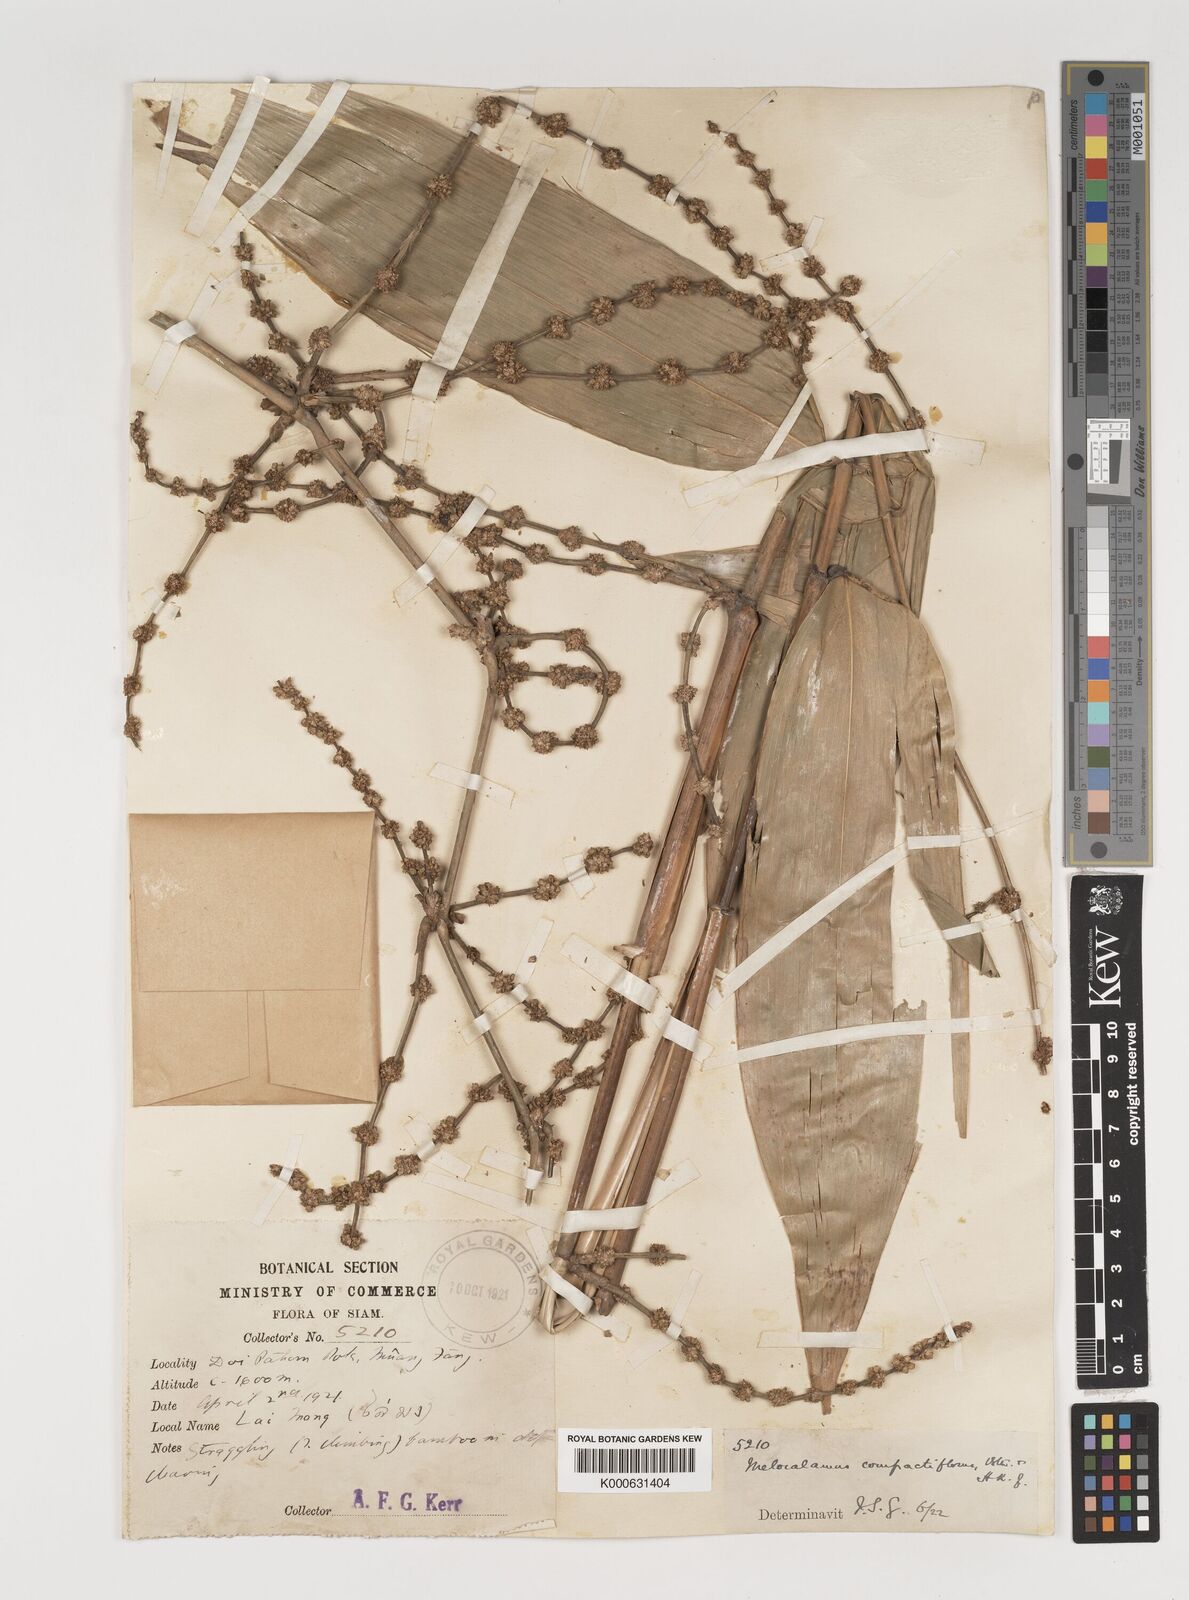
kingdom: Plantae
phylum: Tracheophyta
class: Liliopsida
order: Poales
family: Poaceae
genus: Melocalamus
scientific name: Melocalamus compactiflorus
